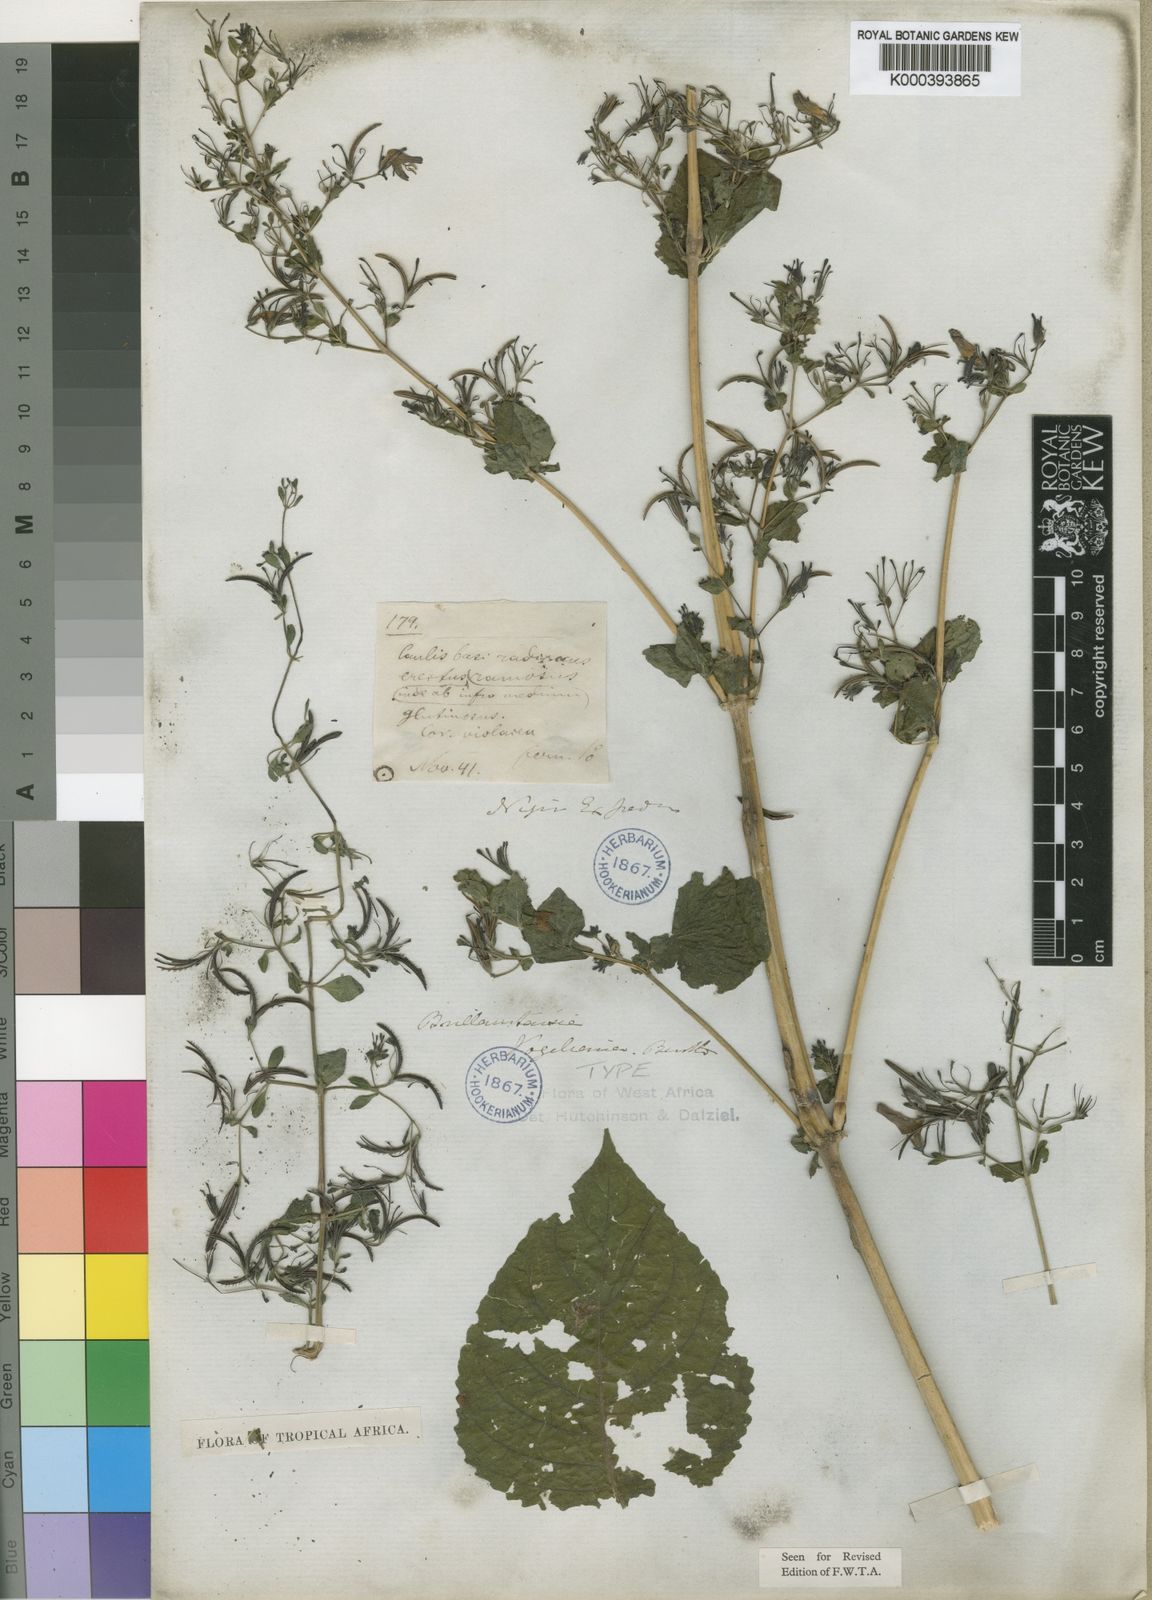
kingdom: Plantae
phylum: Tracheophyta
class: Magnoliopsida
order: Lamiales
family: Acanthaceae
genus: Brillantaisia
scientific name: Brillantaisia vogeliana
